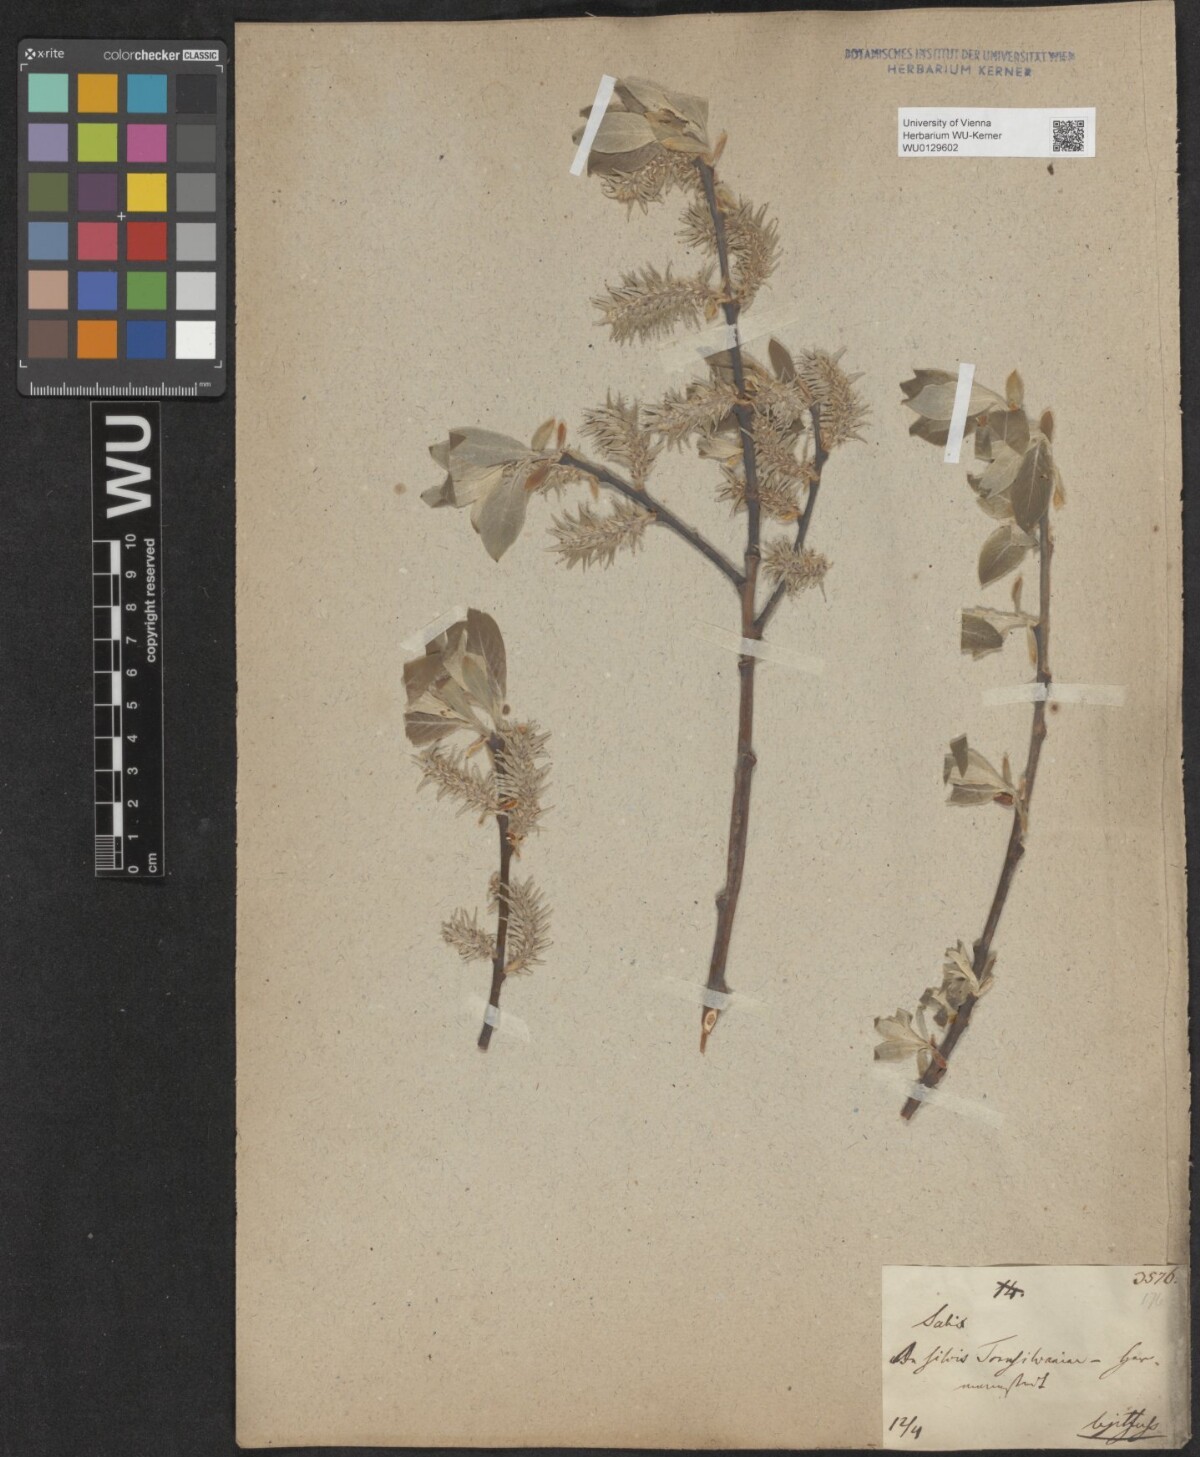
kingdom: Plantae
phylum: Tracheophyta
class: Magnoliopsida
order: Malpighiales
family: Salicaceae
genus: Salix
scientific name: Salix caprea
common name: Goat willow
